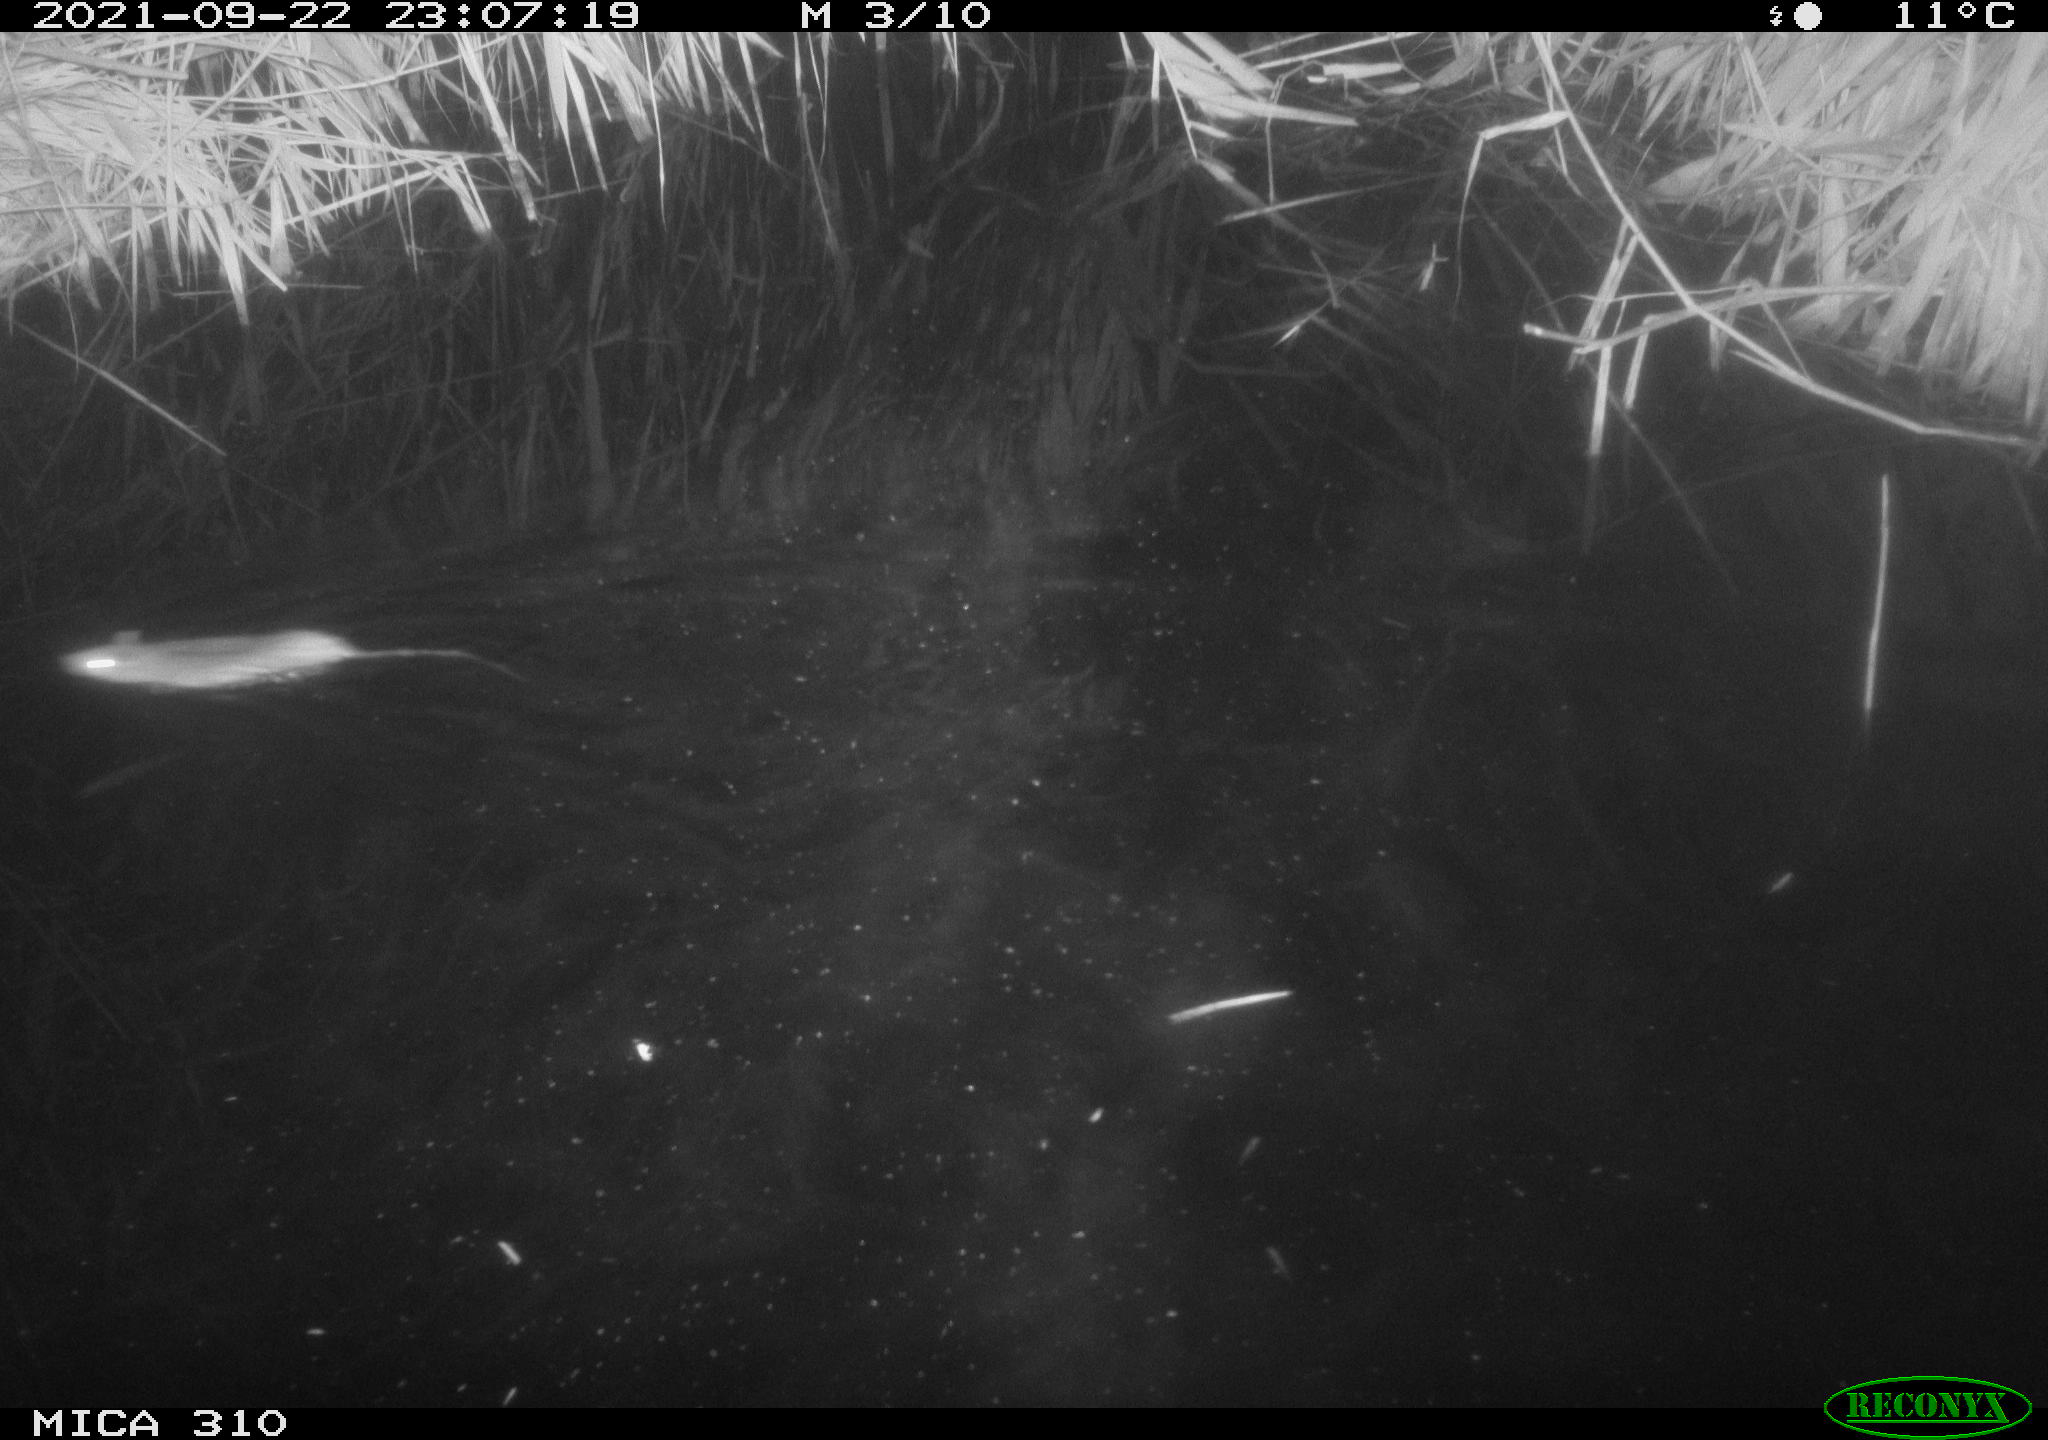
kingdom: Animalia
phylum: Chordata
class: Mammalia
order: Rodentia
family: Muridae
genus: Rattus
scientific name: Rattus norvegicus
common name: Brown rat
